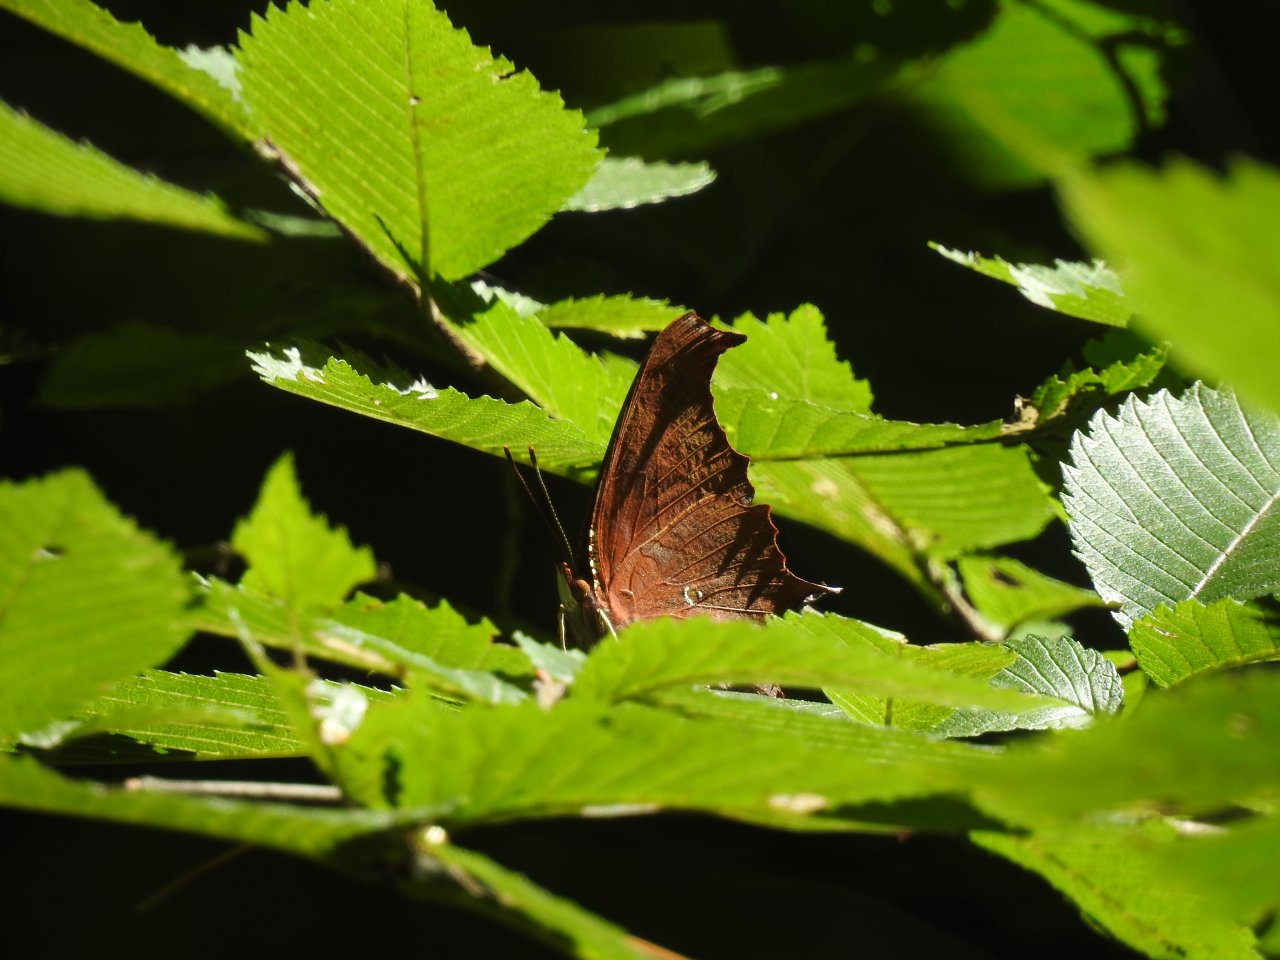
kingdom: Animalia
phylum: Arthropoda
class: Insecta
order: Lepidoptera
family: Nymphalidae
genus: Polygonia
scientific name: Polygonia interrogationis
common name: Question Mark
